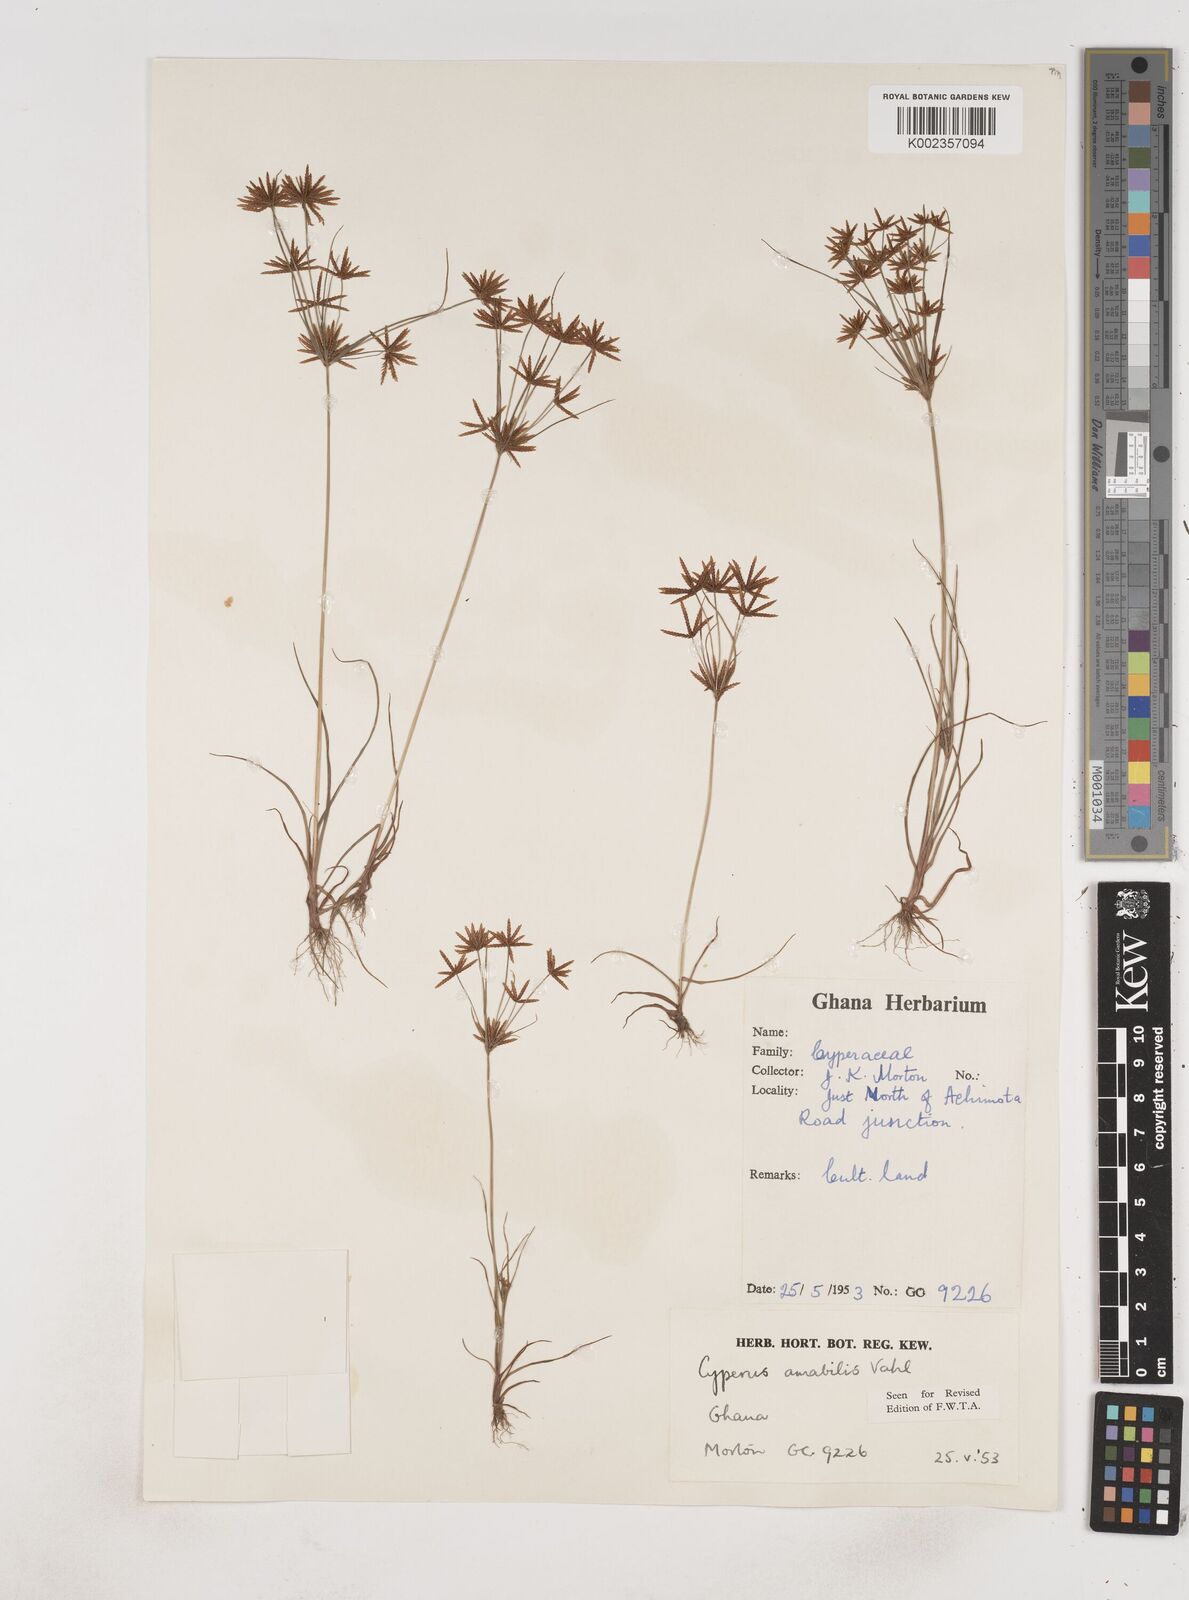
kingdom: Plantae
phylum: Tracheophyta
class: Liliopsida
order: Poales
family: Cyperaceae
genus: Cyperus
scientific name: Cyperus amabilis
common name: Foothill flat sedge
